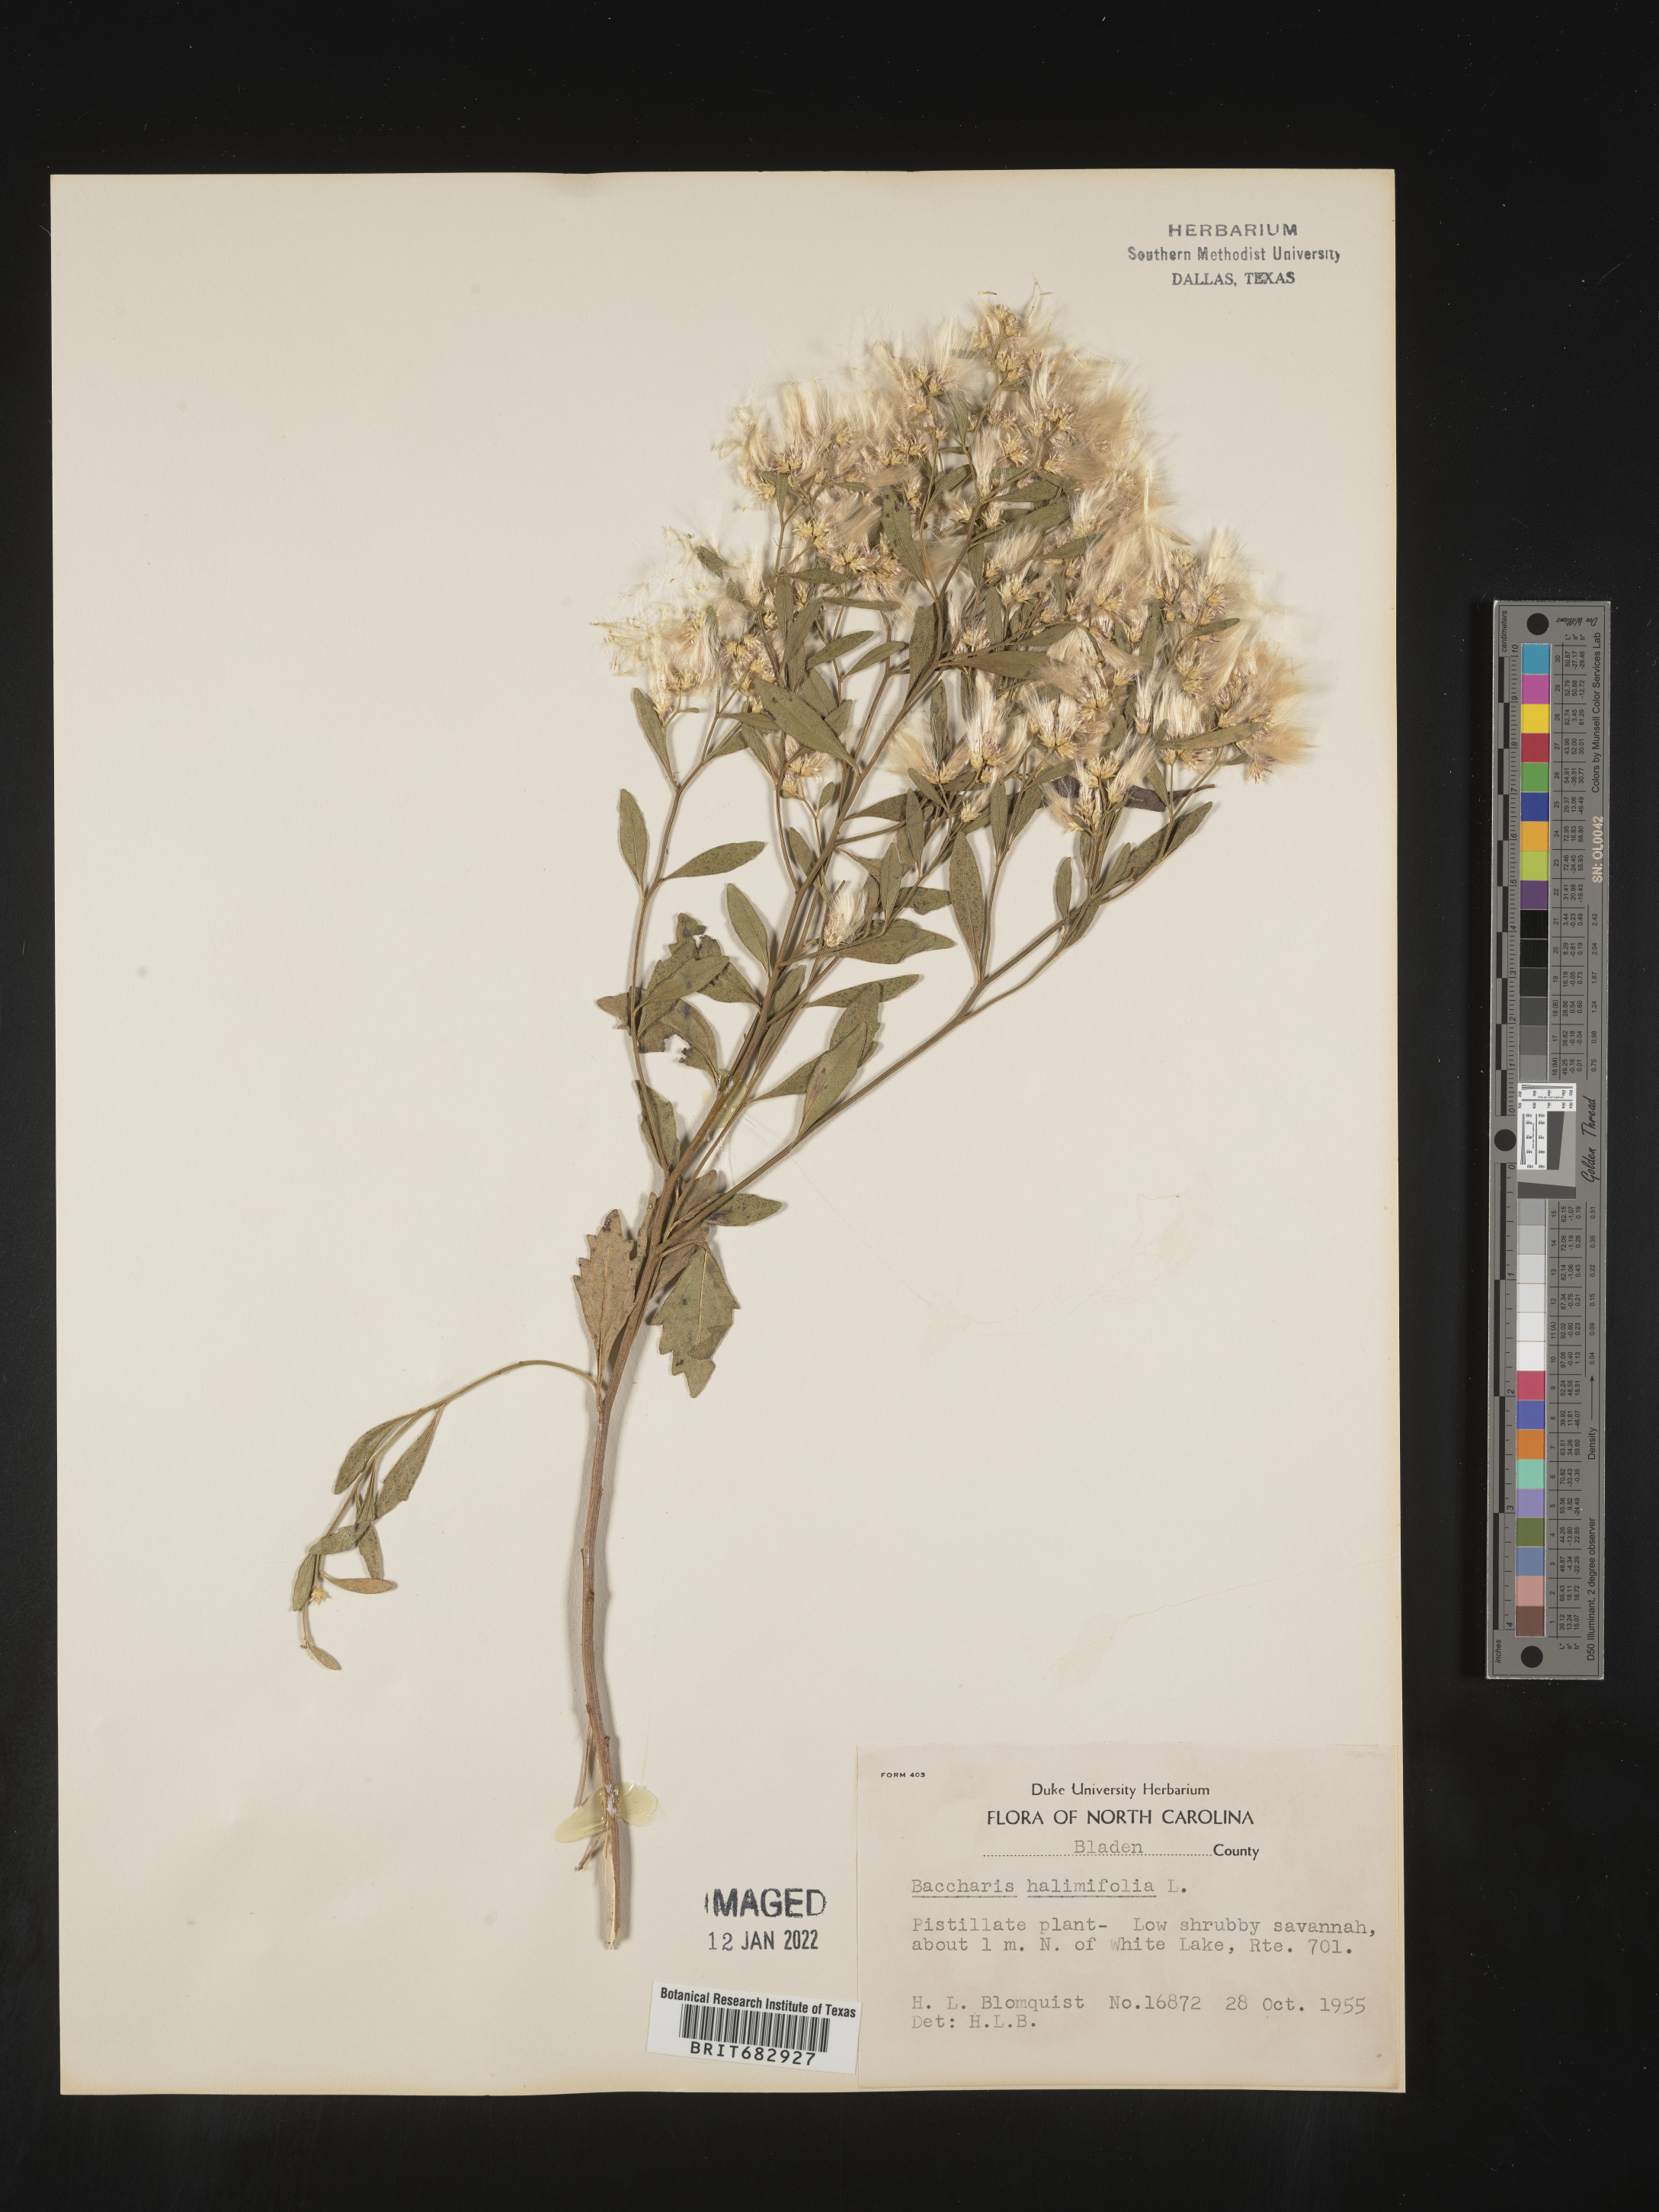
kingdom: Plantae
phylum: Tracheophyta
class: Magnoliopsida
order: Asterales
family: Asteraceae
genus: Nidorella
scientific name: Nidorella ivifolia
